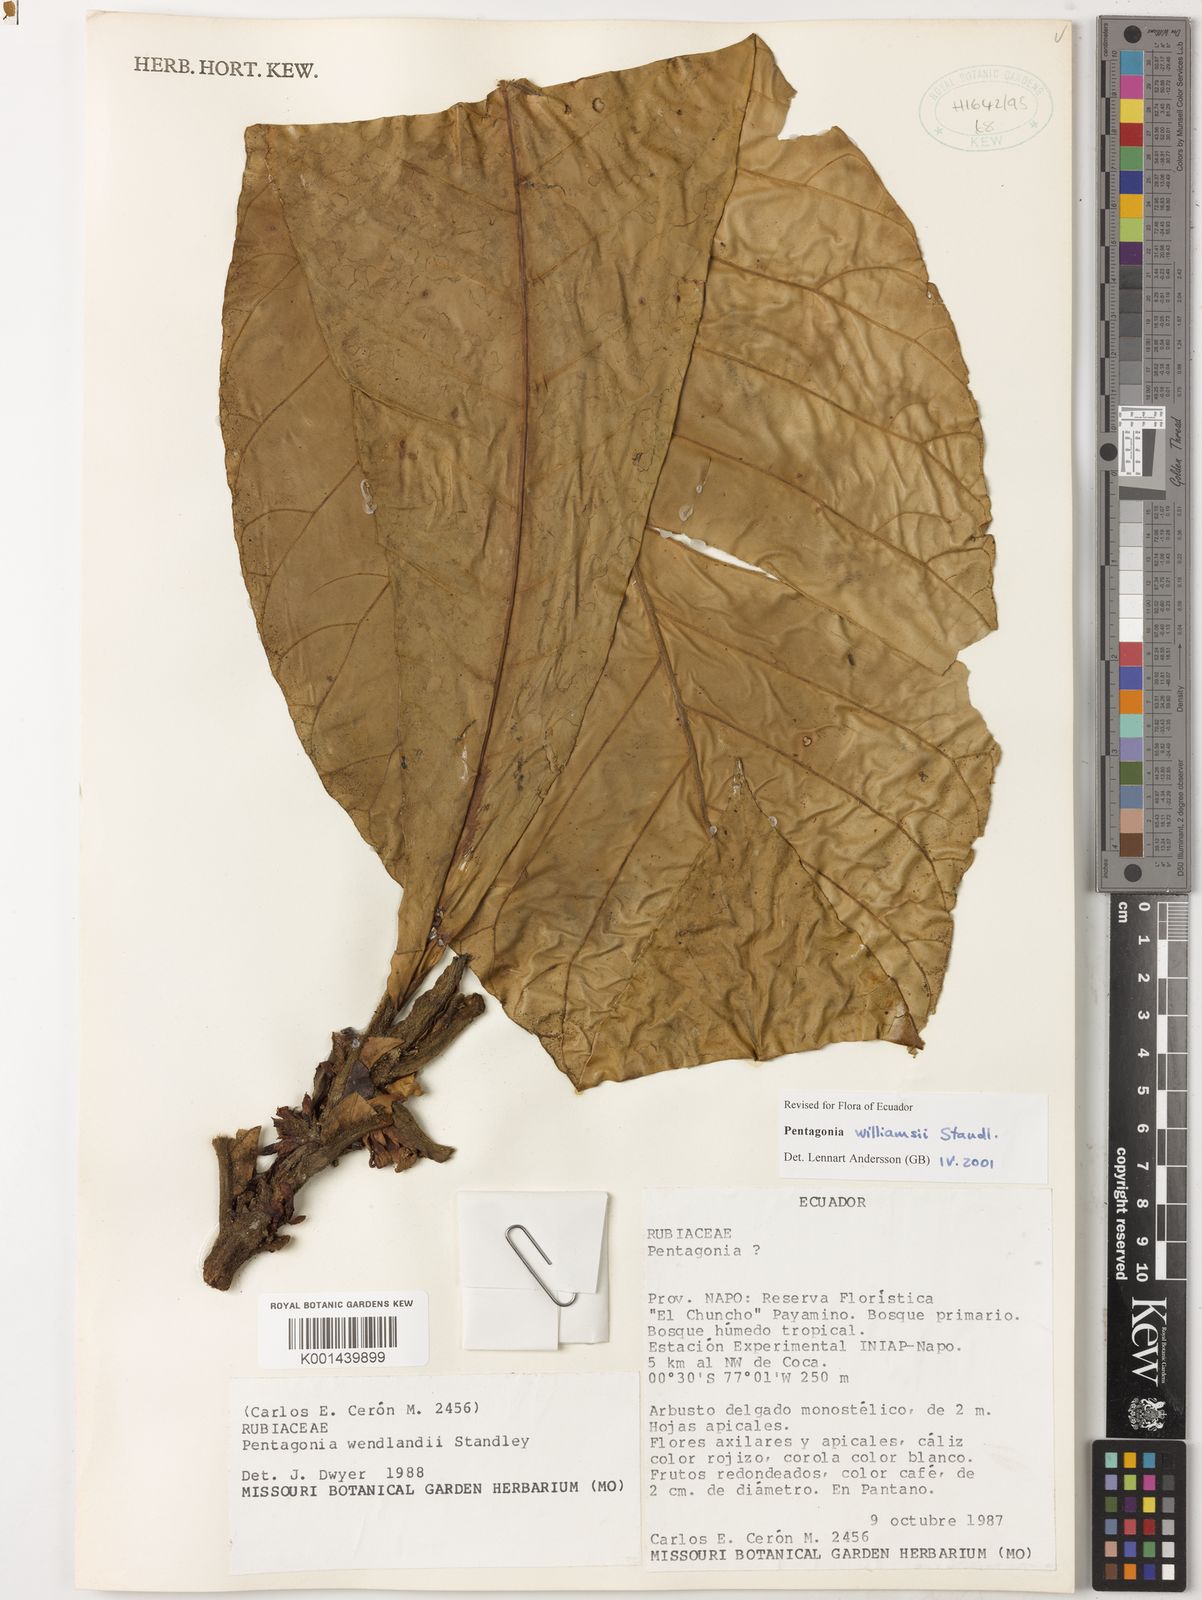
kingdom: Plantae
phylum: Tracheophyta
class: Magnoliopsida
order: Gentianales
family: Rubiaceae
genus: Pentagonia
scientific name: Pentagonia williamsii
